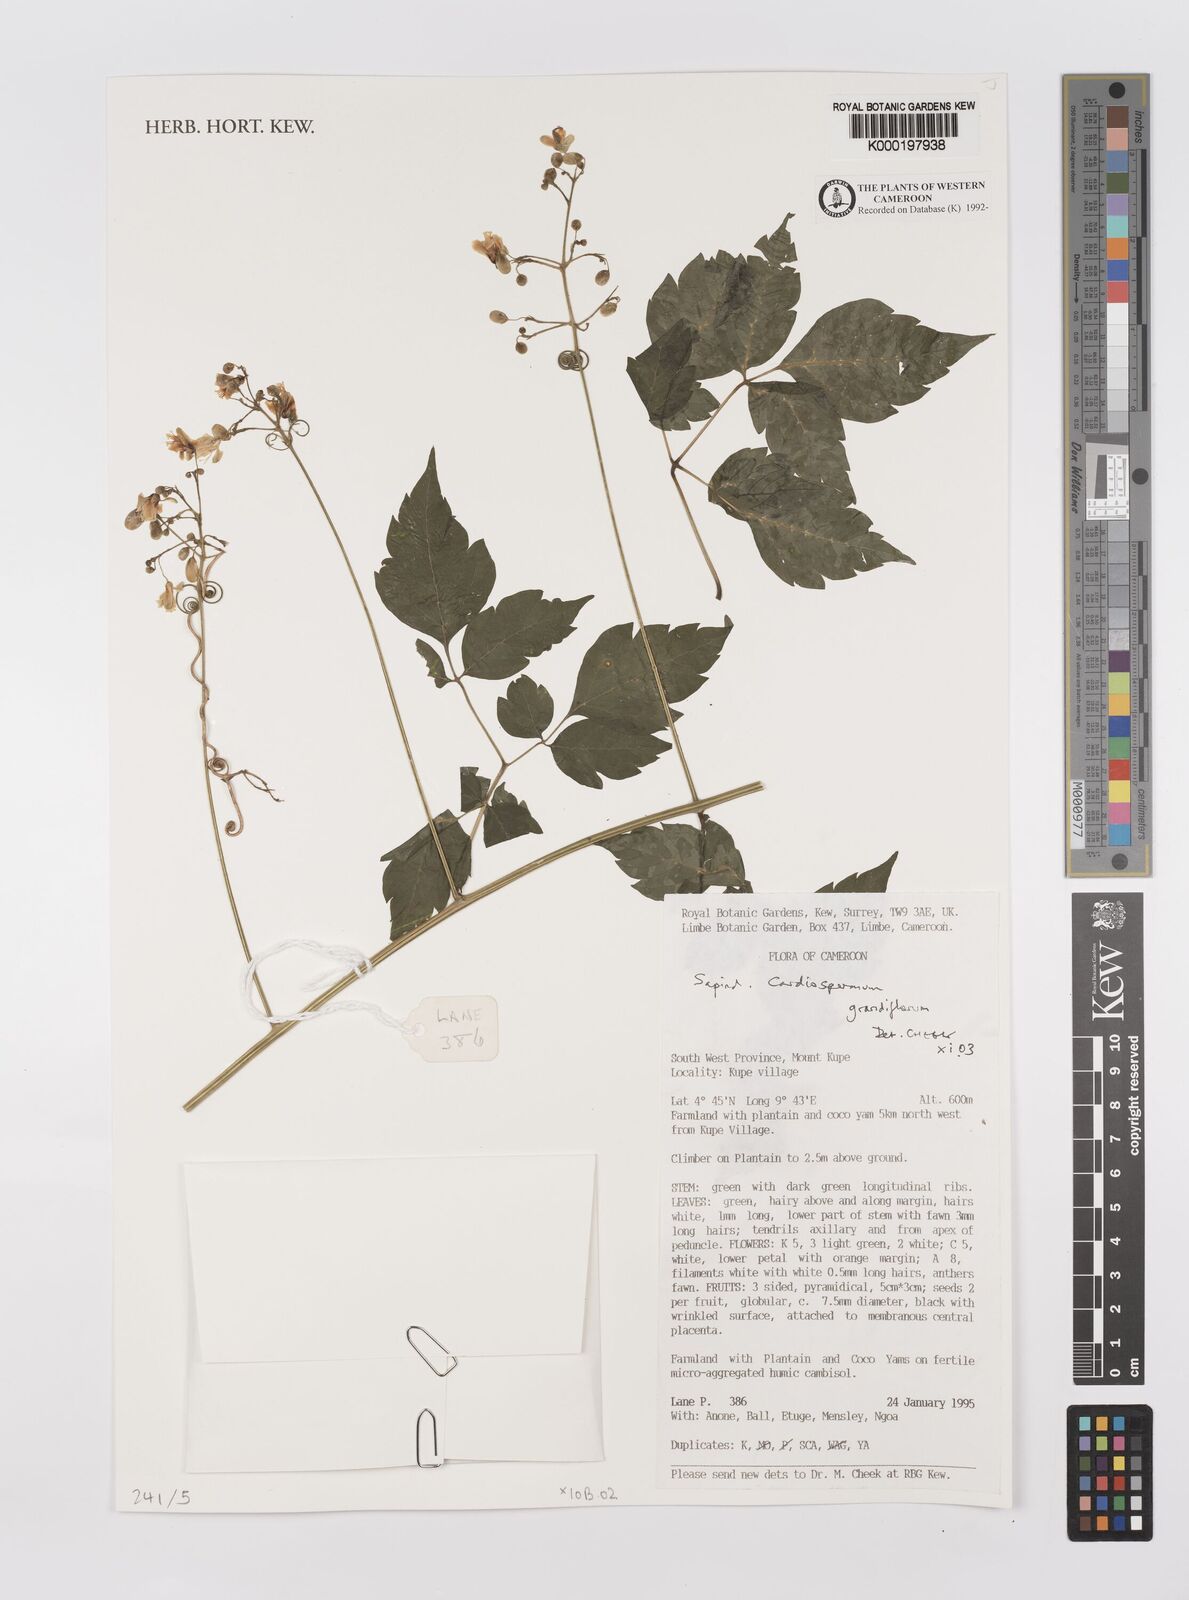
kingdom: Plantae
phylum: Tracheophyta
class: Magnoliopsida
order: Sapindales
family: Sapindaceae
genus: Cardiospermum
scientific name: Cardiospermum grandiflorum
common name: Balloon vine
